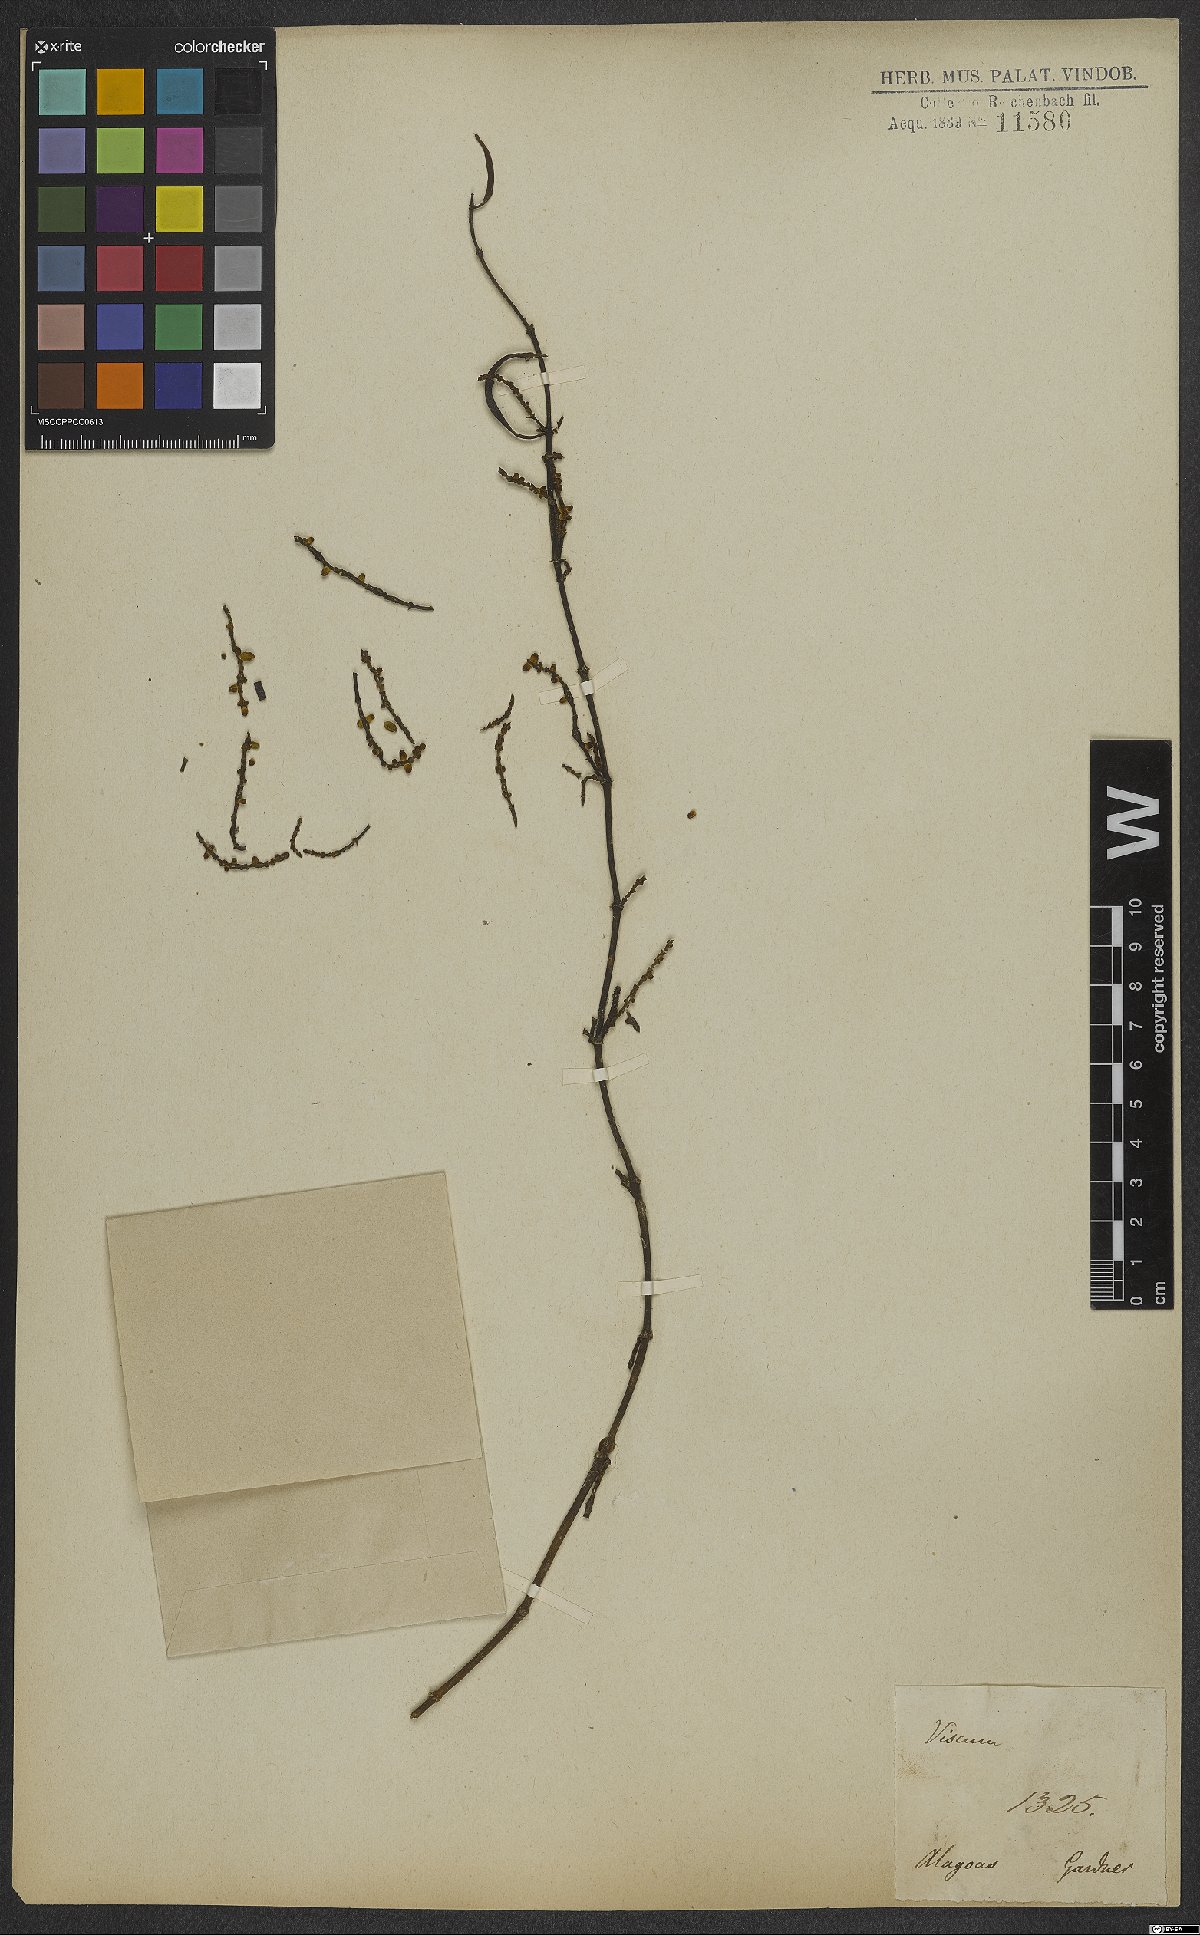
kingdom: Plantae
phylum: Tracheophyta
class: Magnoliopsida
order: Santalales
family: Viscaceae
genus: Viscum
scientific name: Viscum
